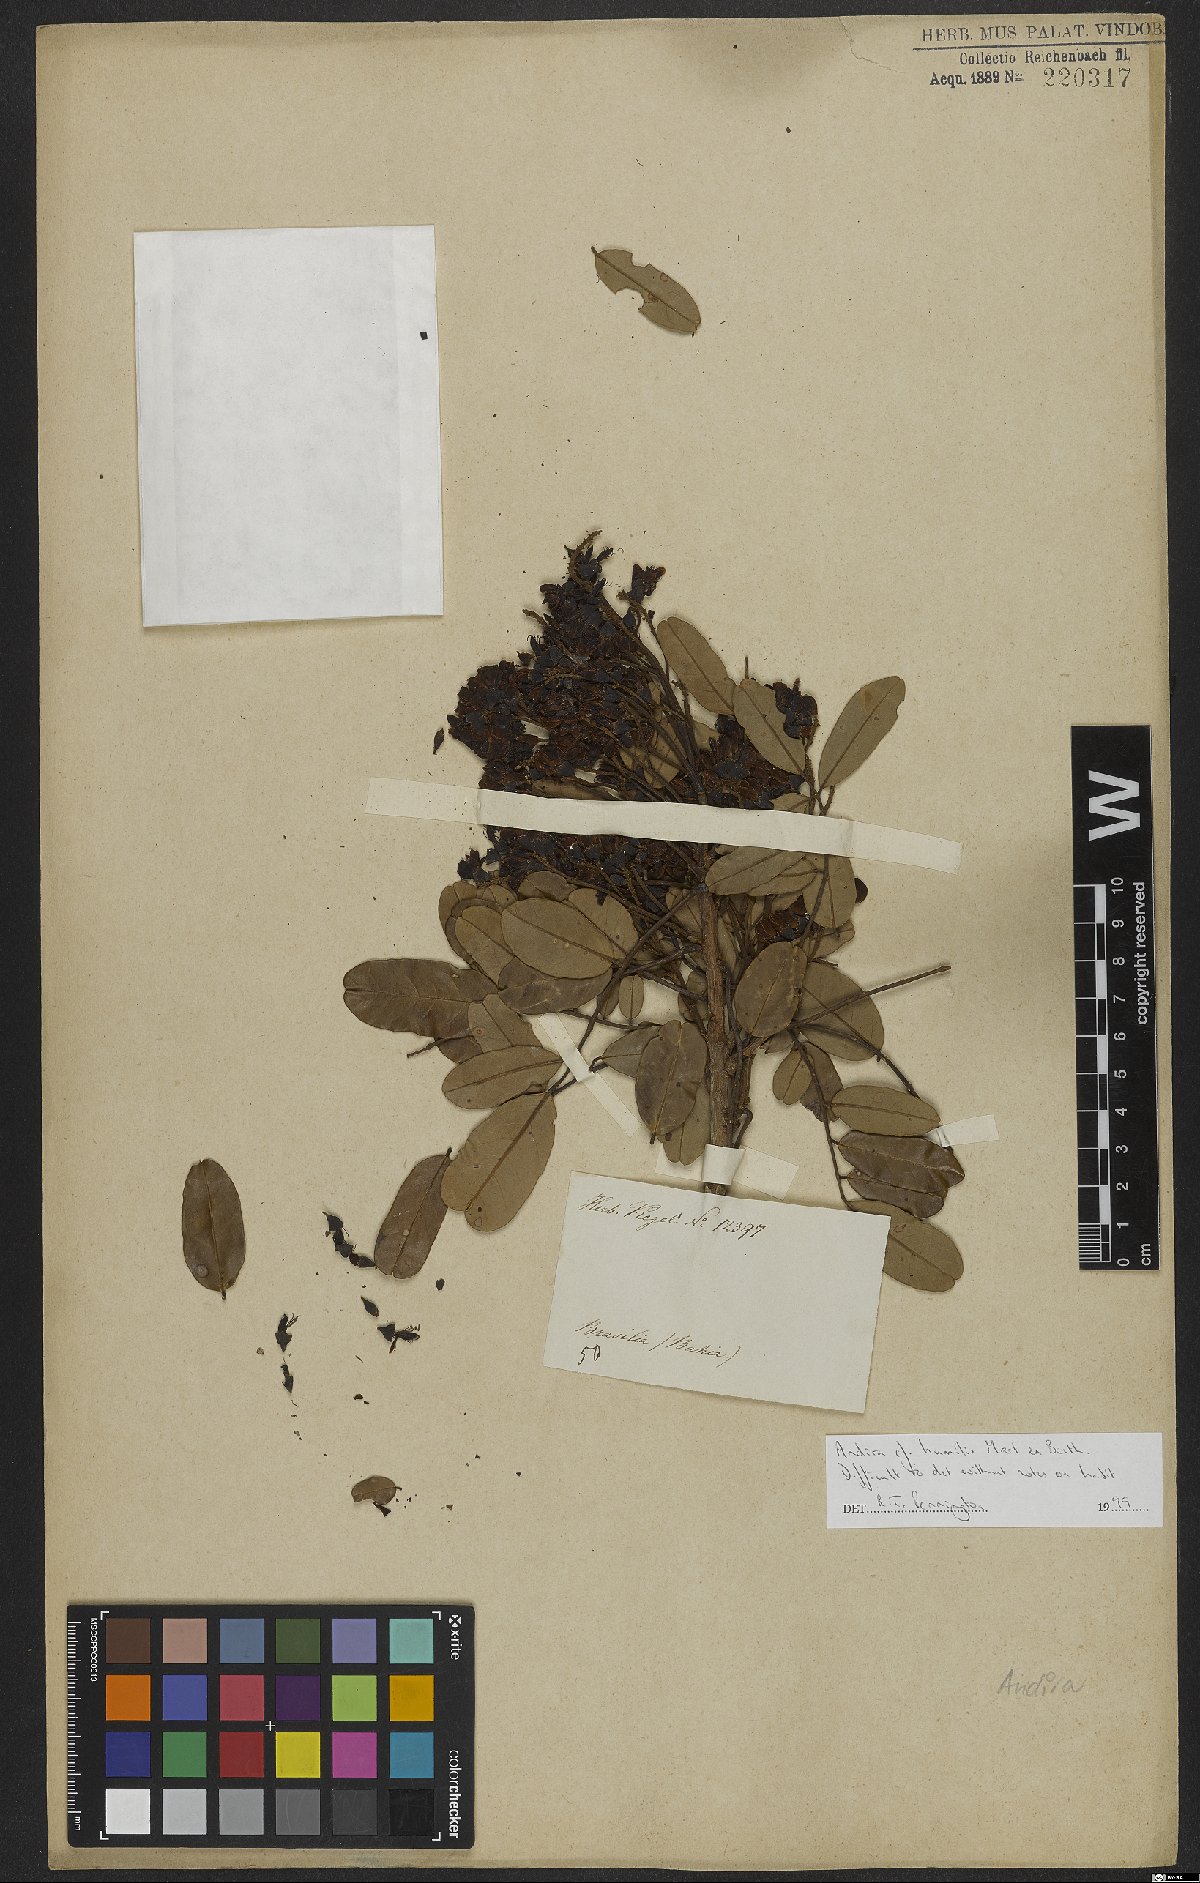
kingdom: Plantae
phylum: Tracheophyta
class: Magnoliopsida
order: Fabales
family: Fabaceae
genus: Andira
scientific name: Andira humilis
